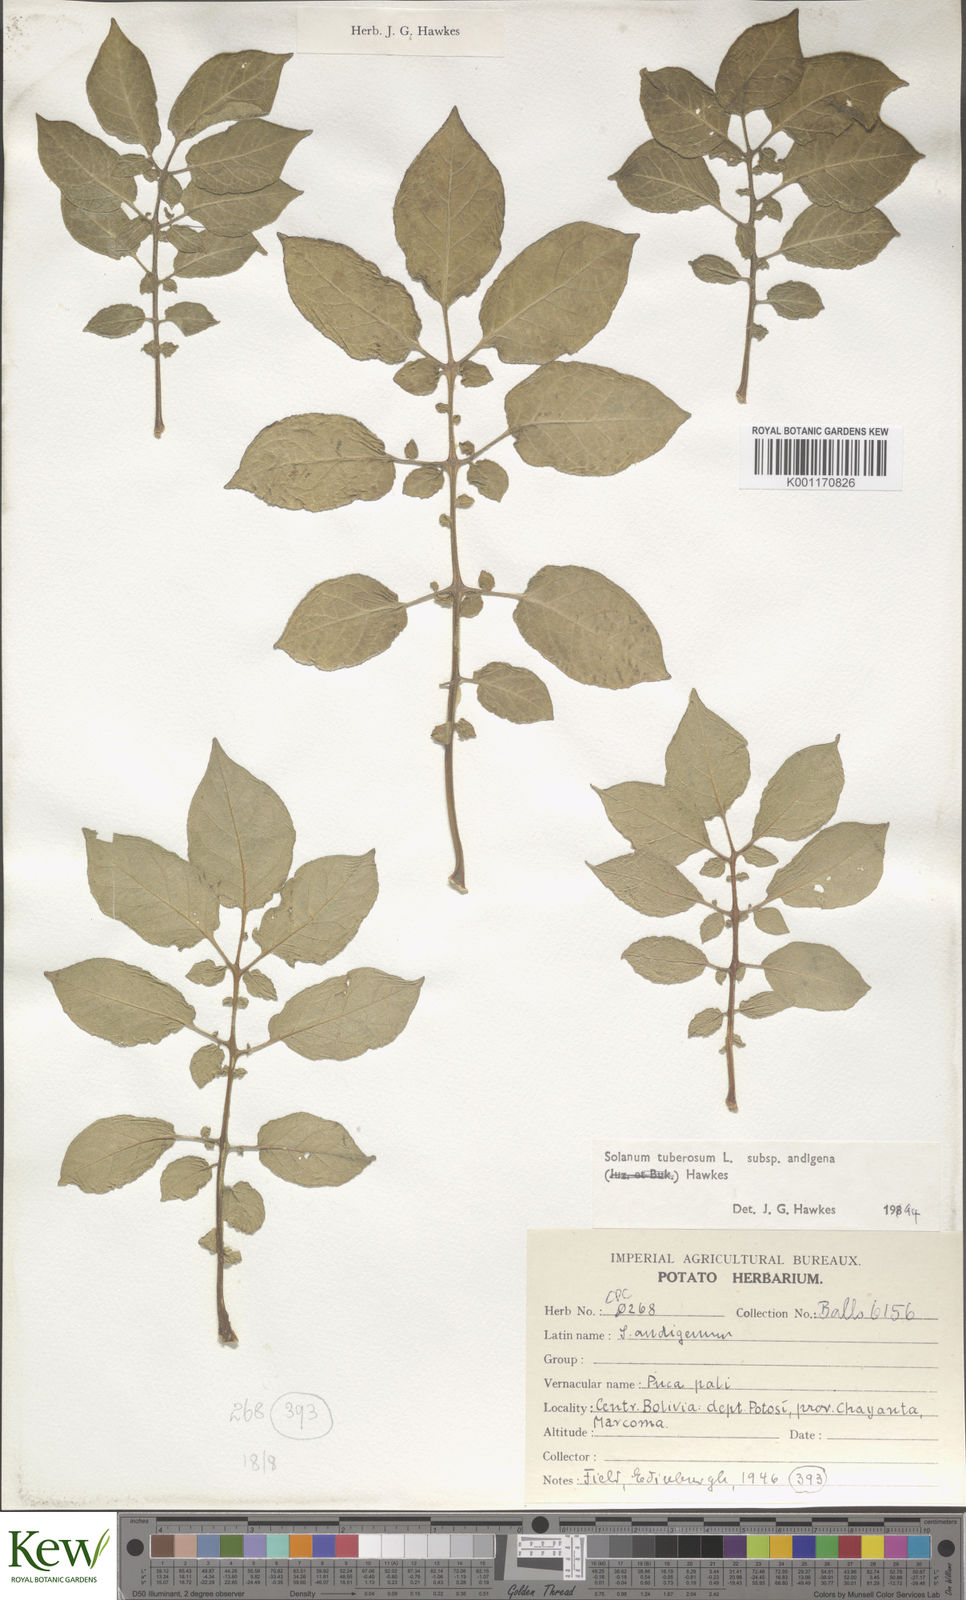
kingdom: Plantae
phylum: Tracheophyta
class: Magnoliopsida
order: Solanales
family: Solanaceae
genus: Solanum
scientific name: Solanum tuberosum
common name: Potato
